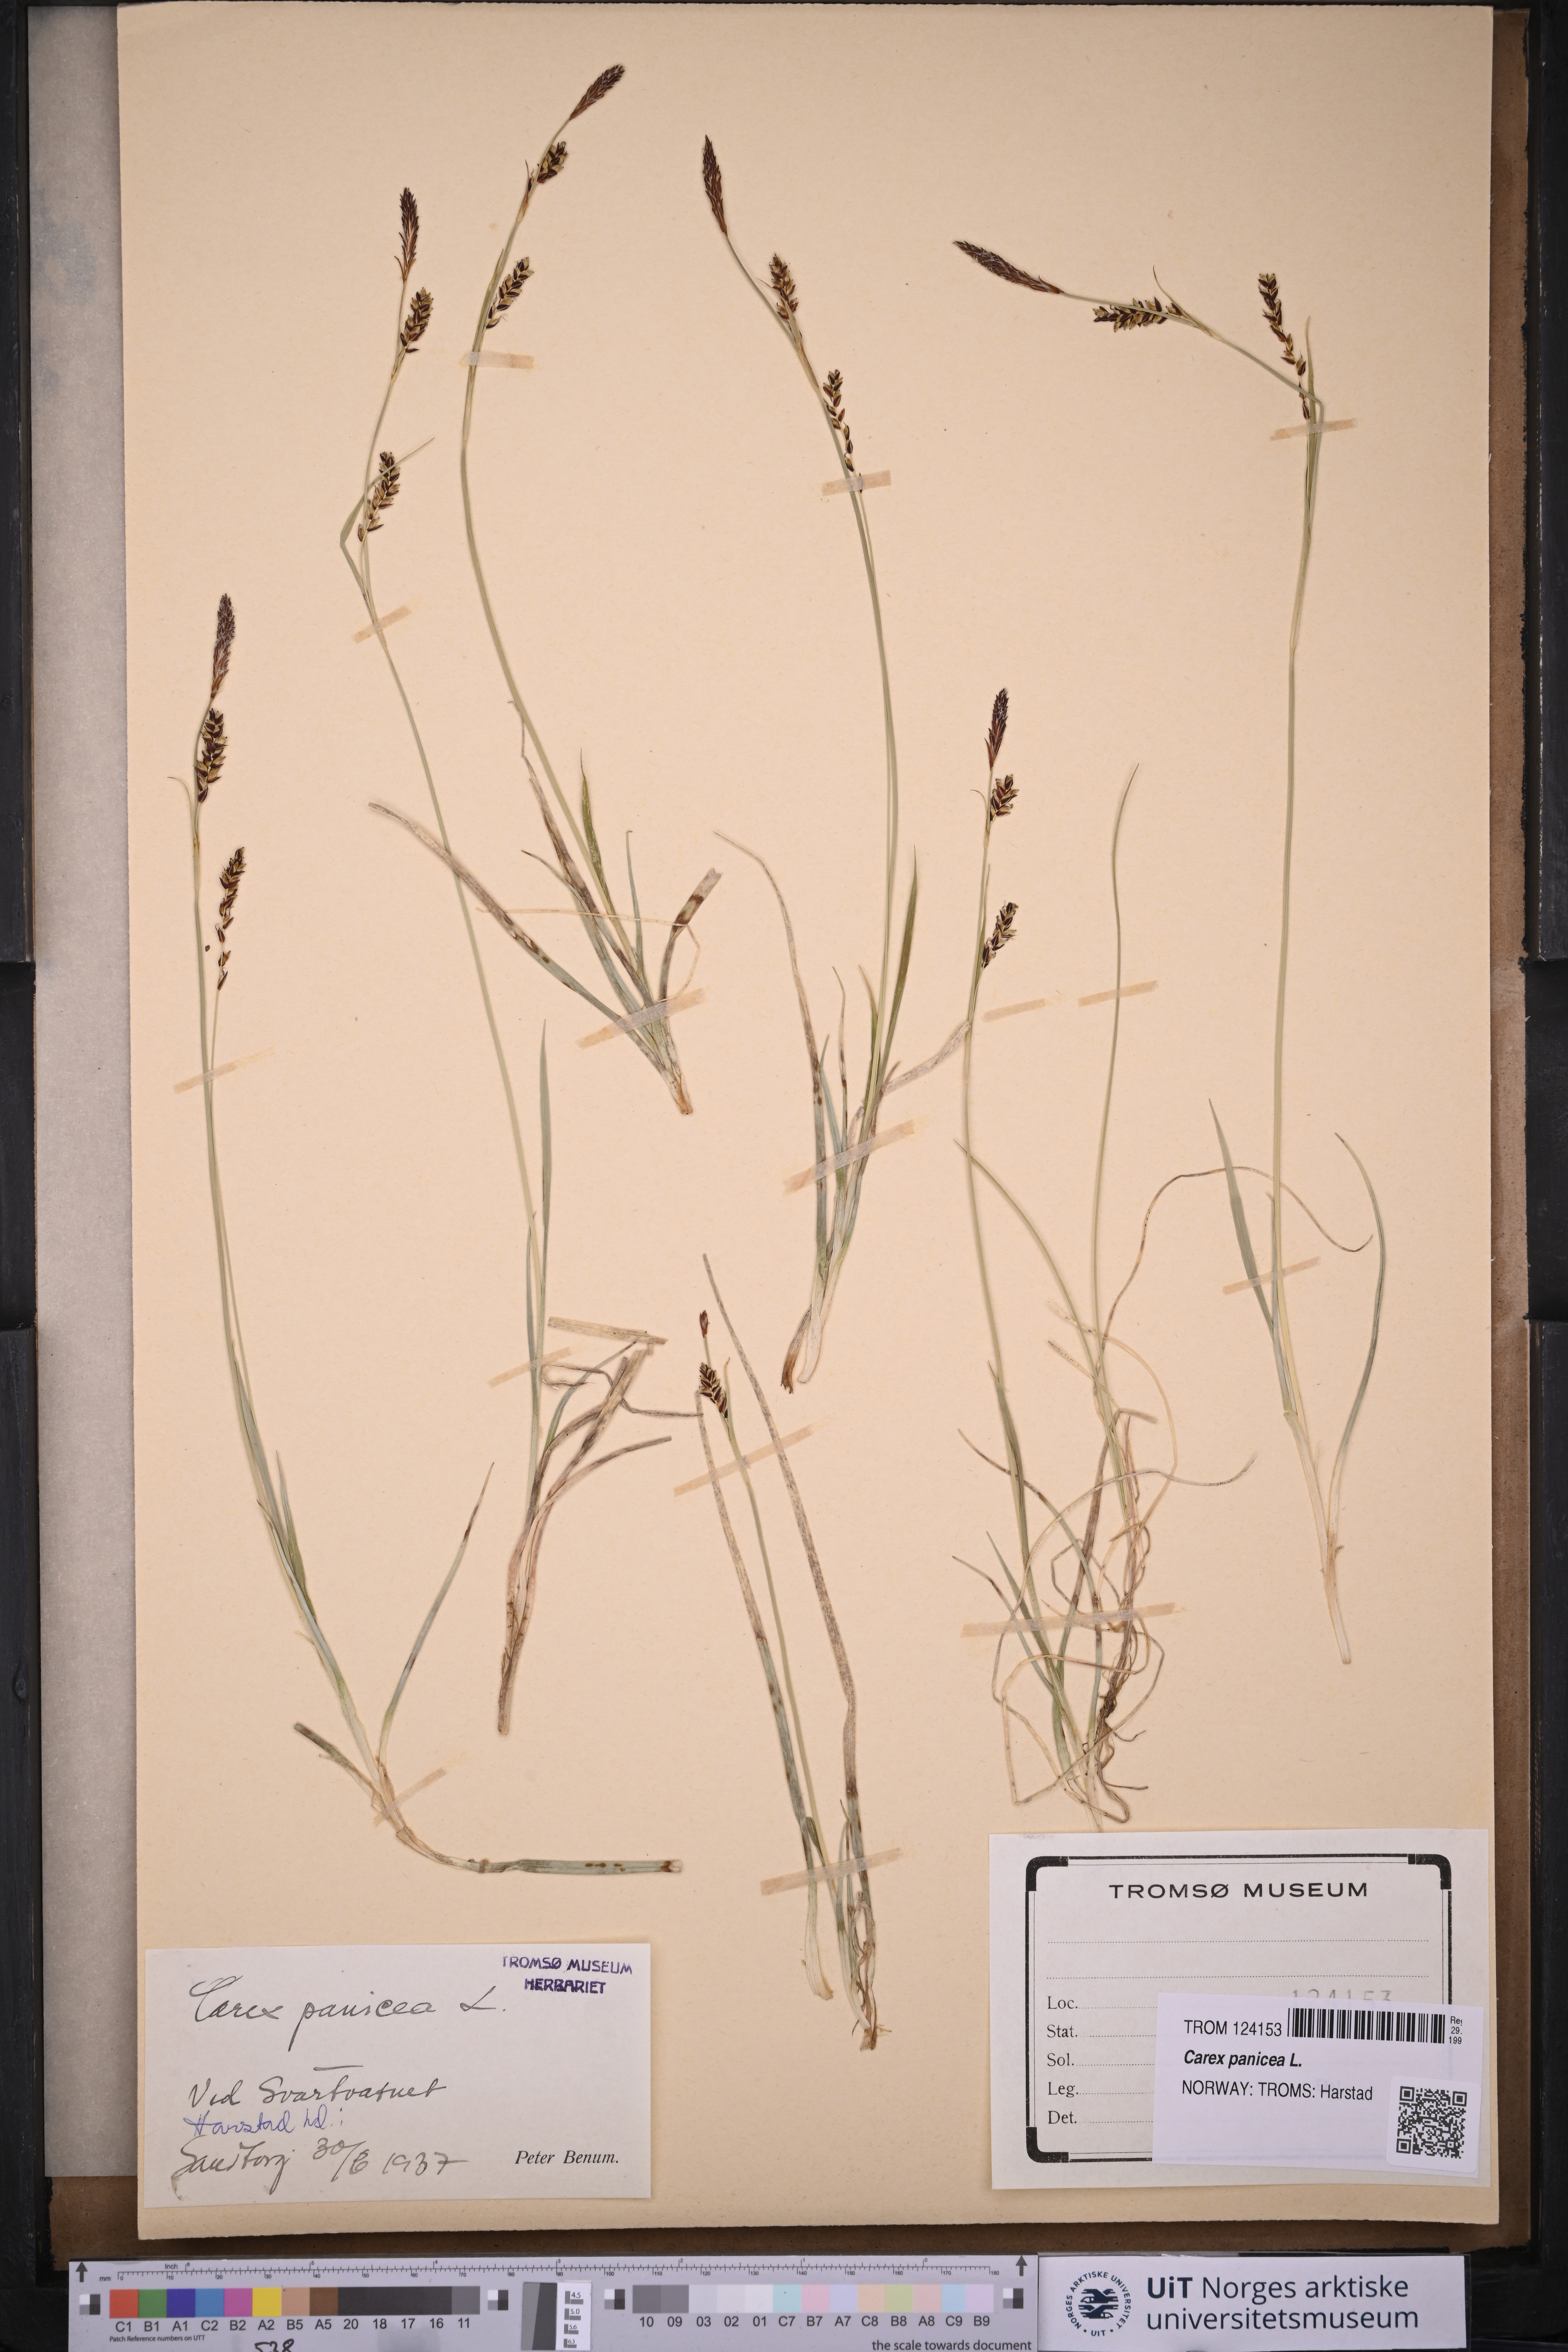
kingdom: Plantae
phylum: Tracheophyta
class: Liliopsida
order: Poales
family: Cyperaceae
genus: Carex
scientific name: Carex panicea
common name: Carnation sedge
